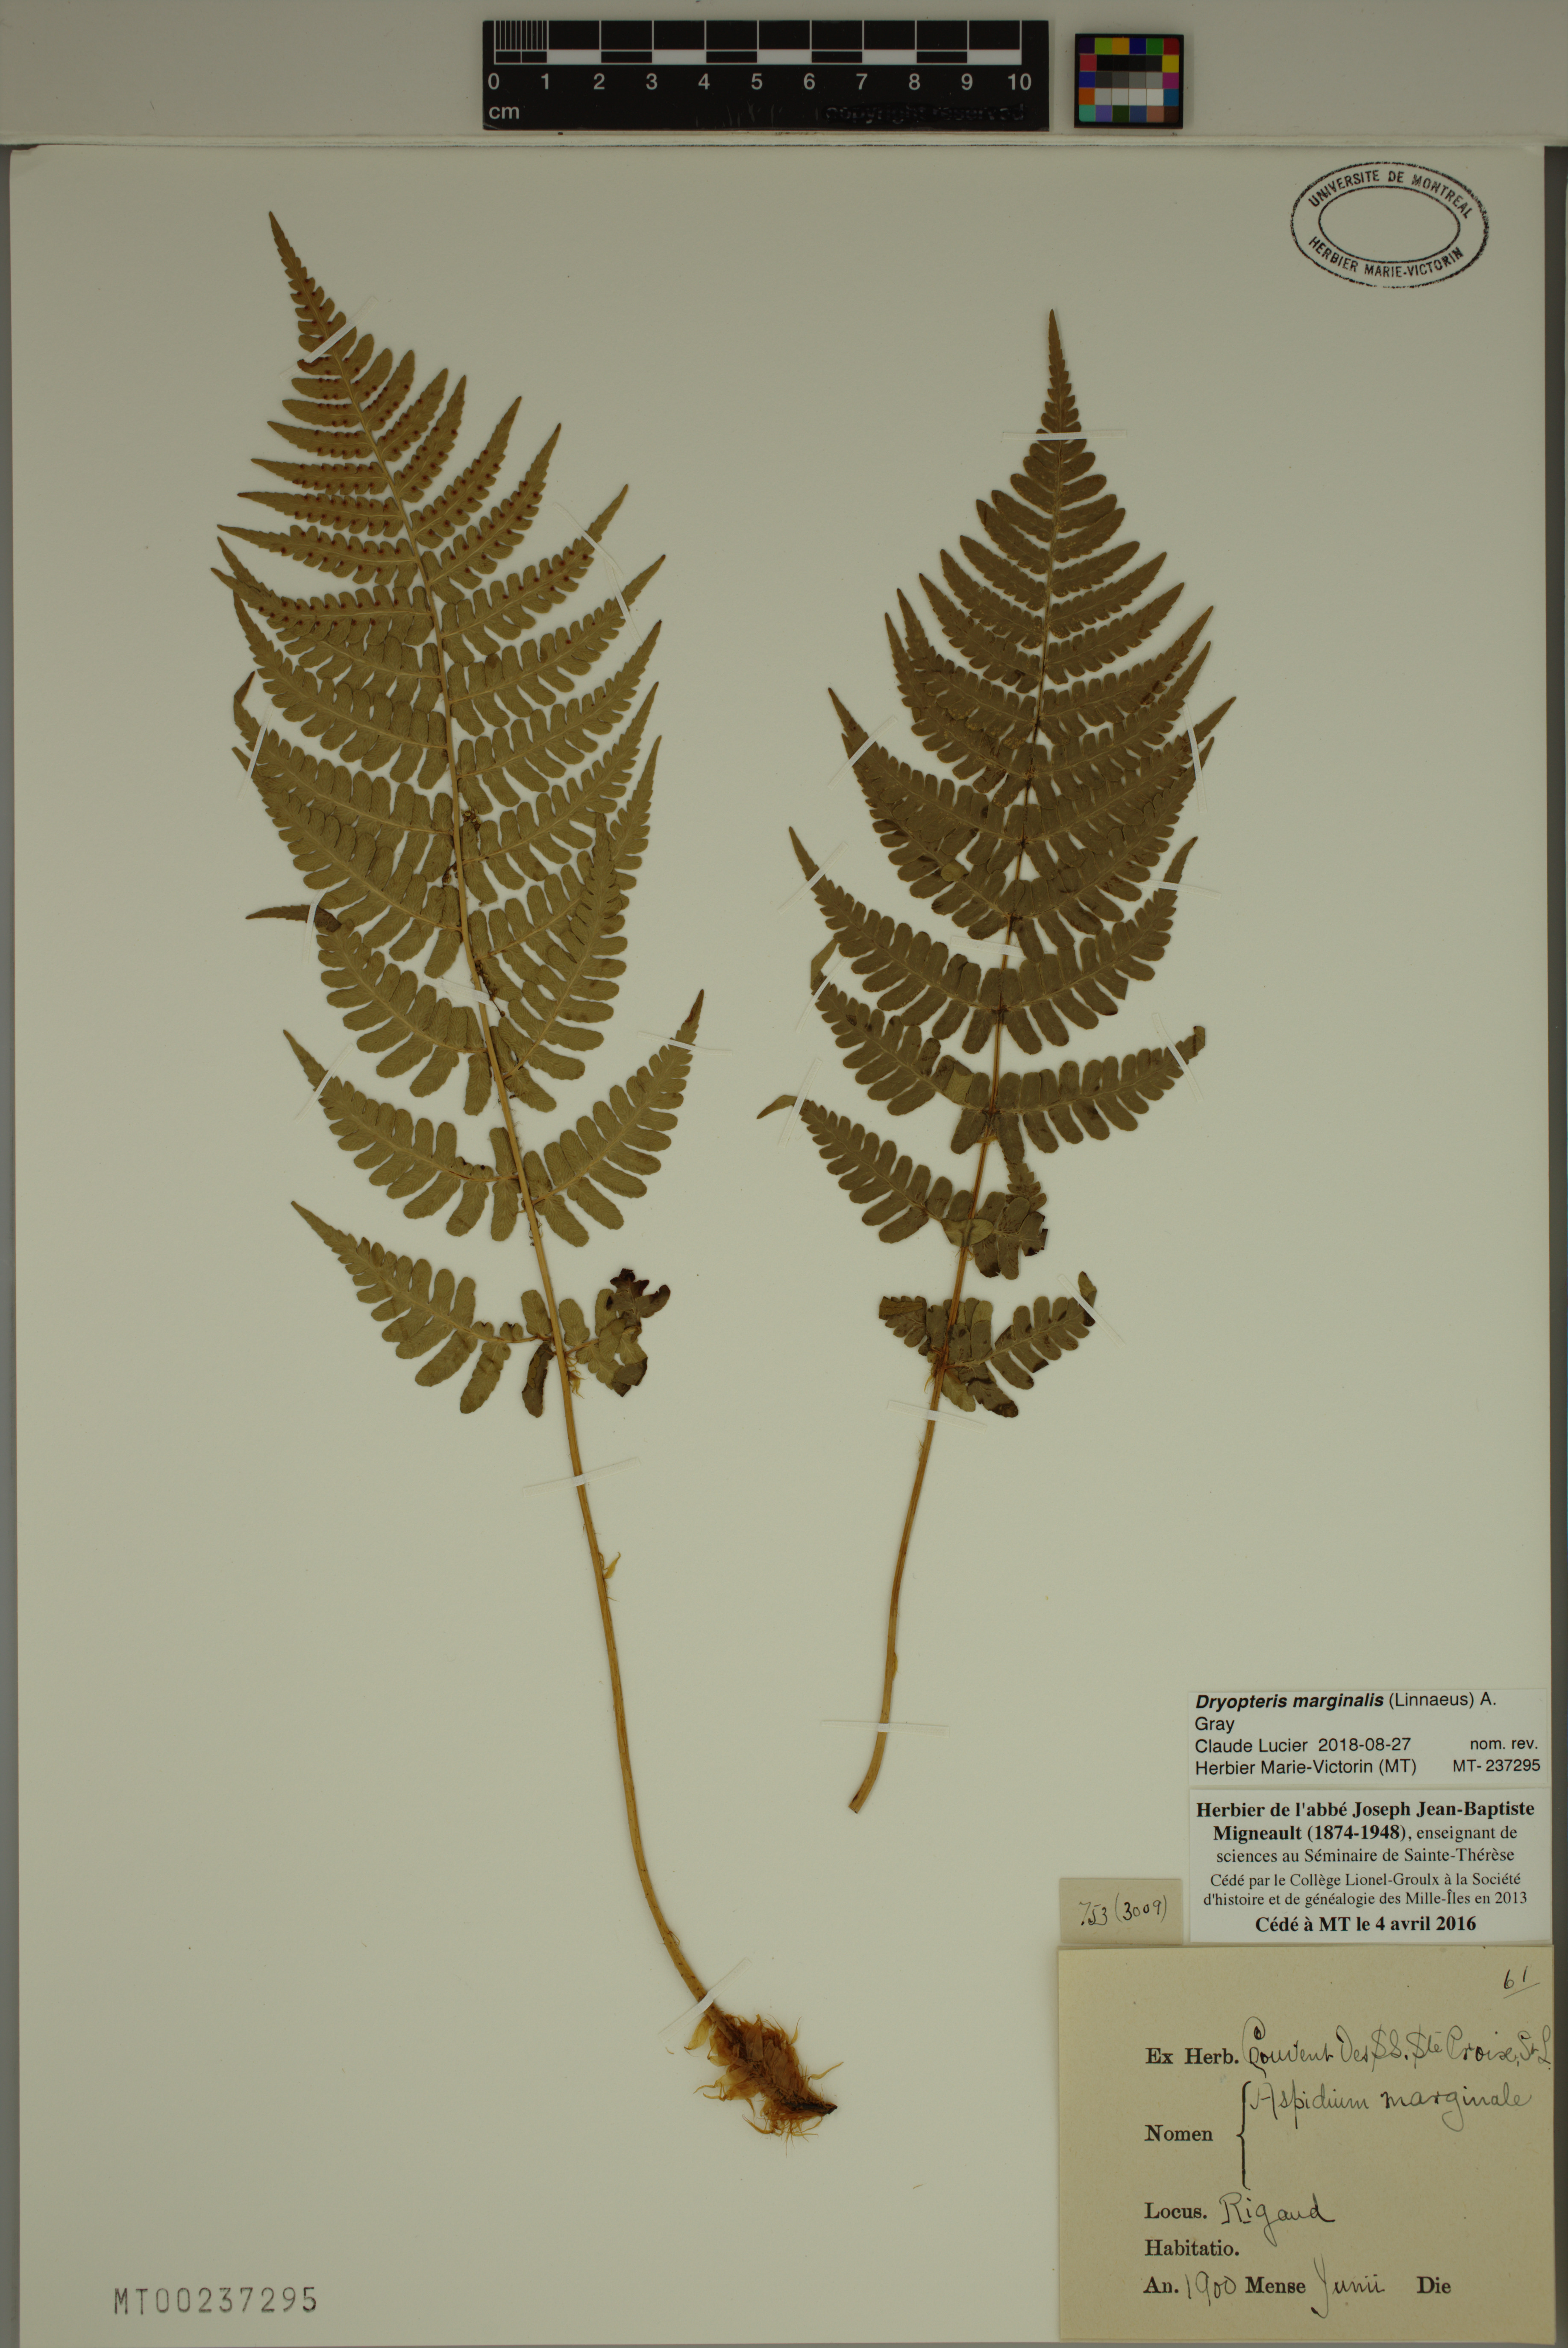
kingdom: Plantae
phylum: Tracheophyta
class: Polypodiopsida
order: Polypodiales
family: Dryopteridaceae
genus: Dryopteris
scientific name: Dryopteris marginalis
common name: Marginal wood fern
